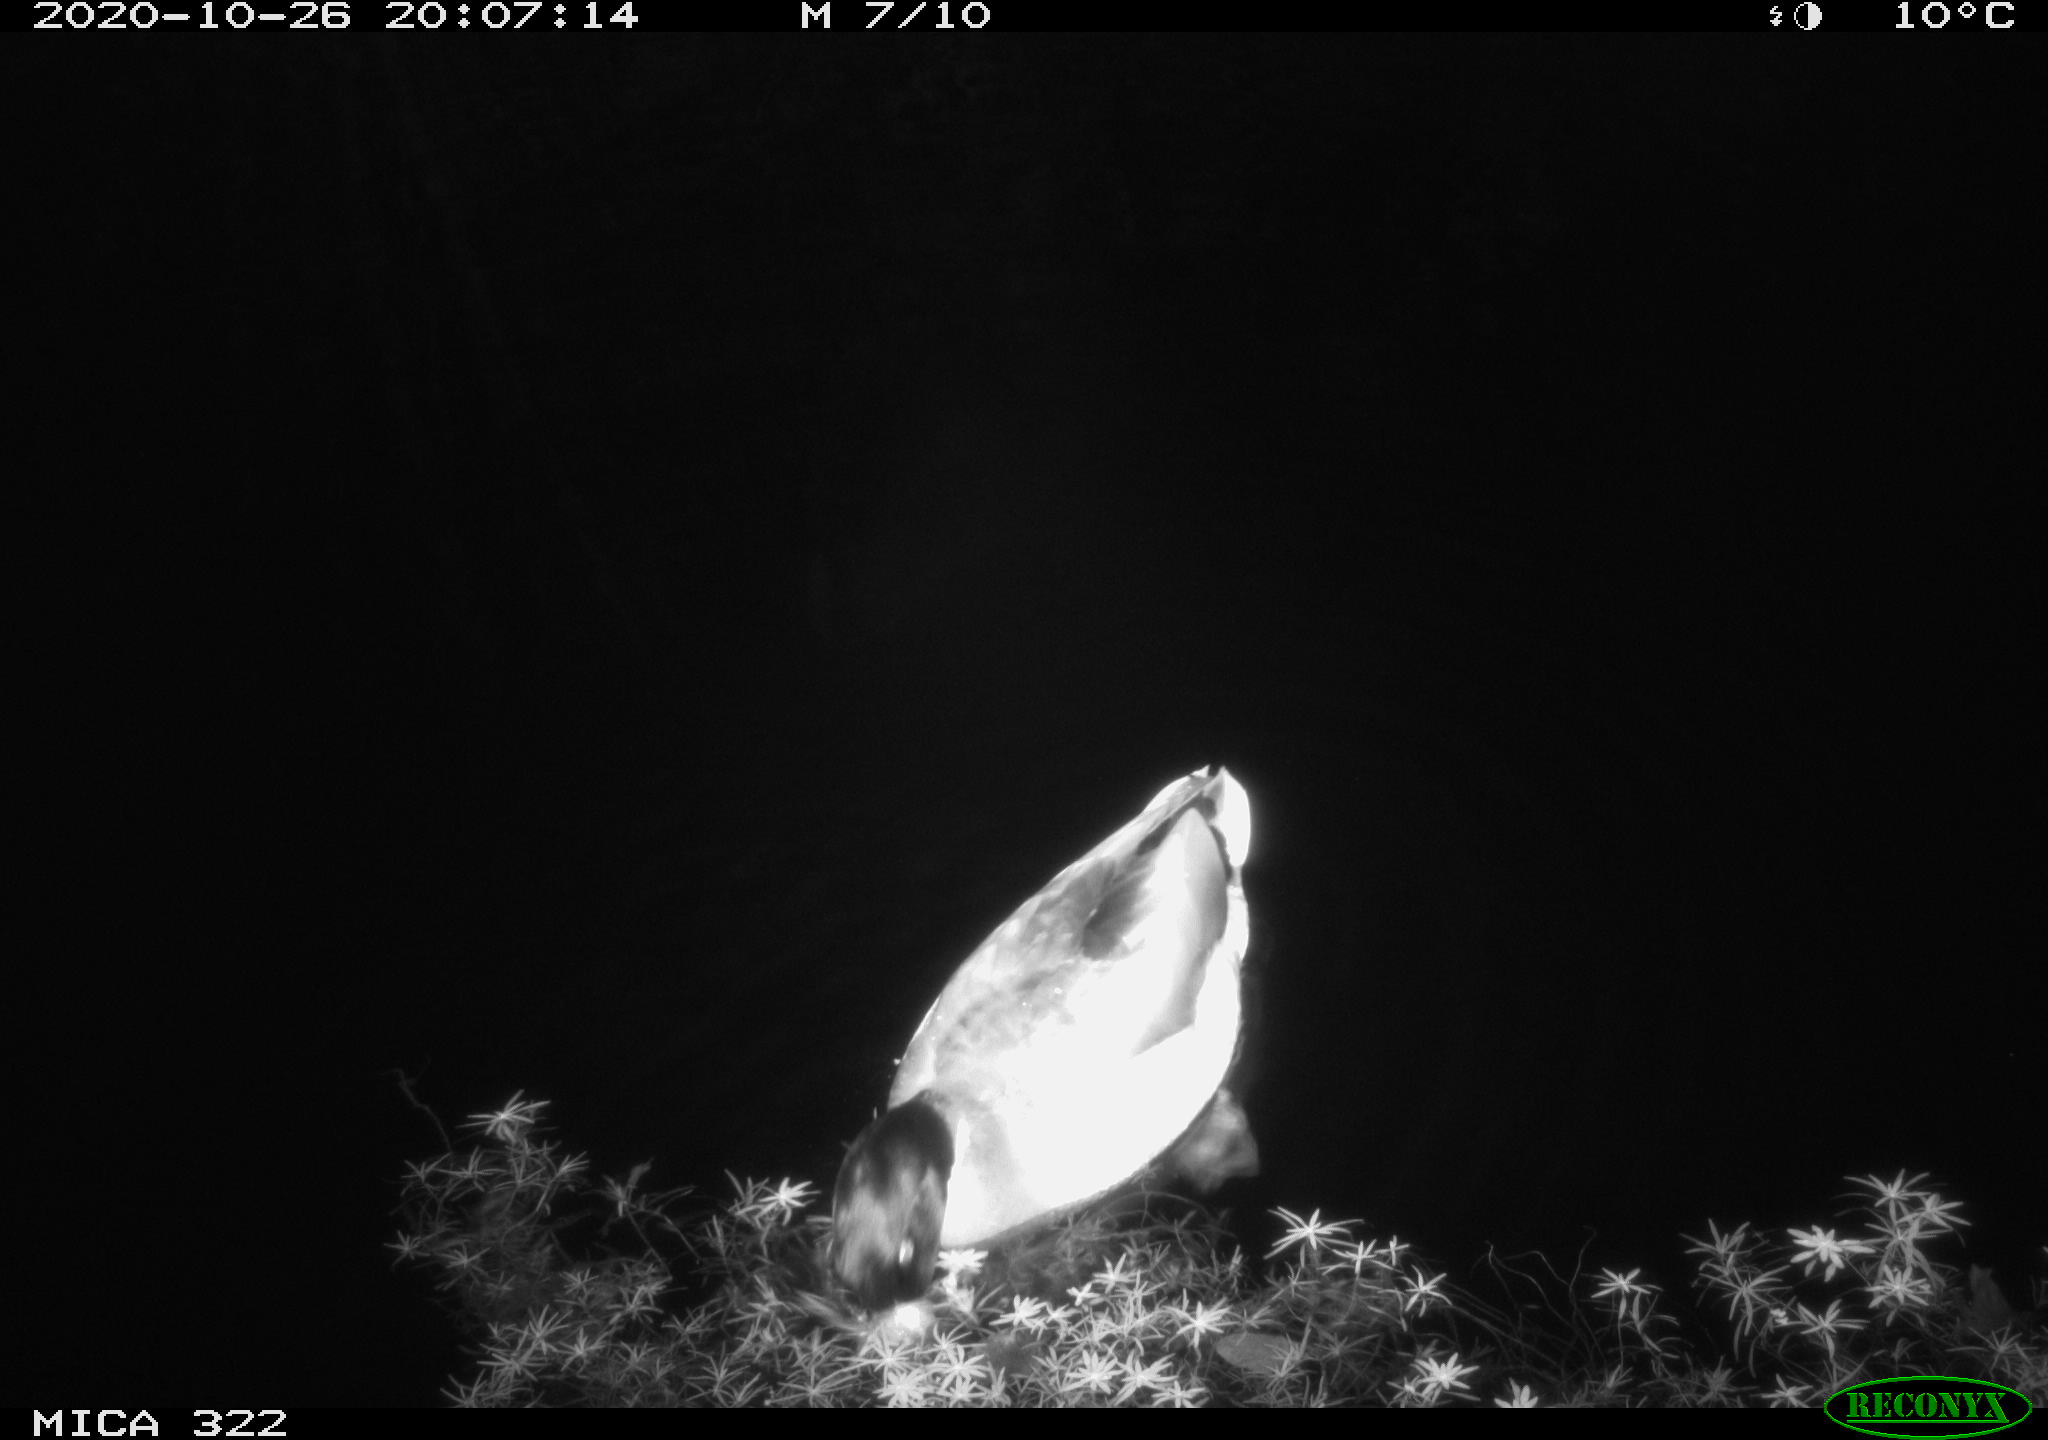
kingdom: Animalia
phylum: Chordata
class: Aves
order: Anseriformes
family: Anatidae
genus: Anas
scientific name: Anas platyrhynchos
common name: Mallard
